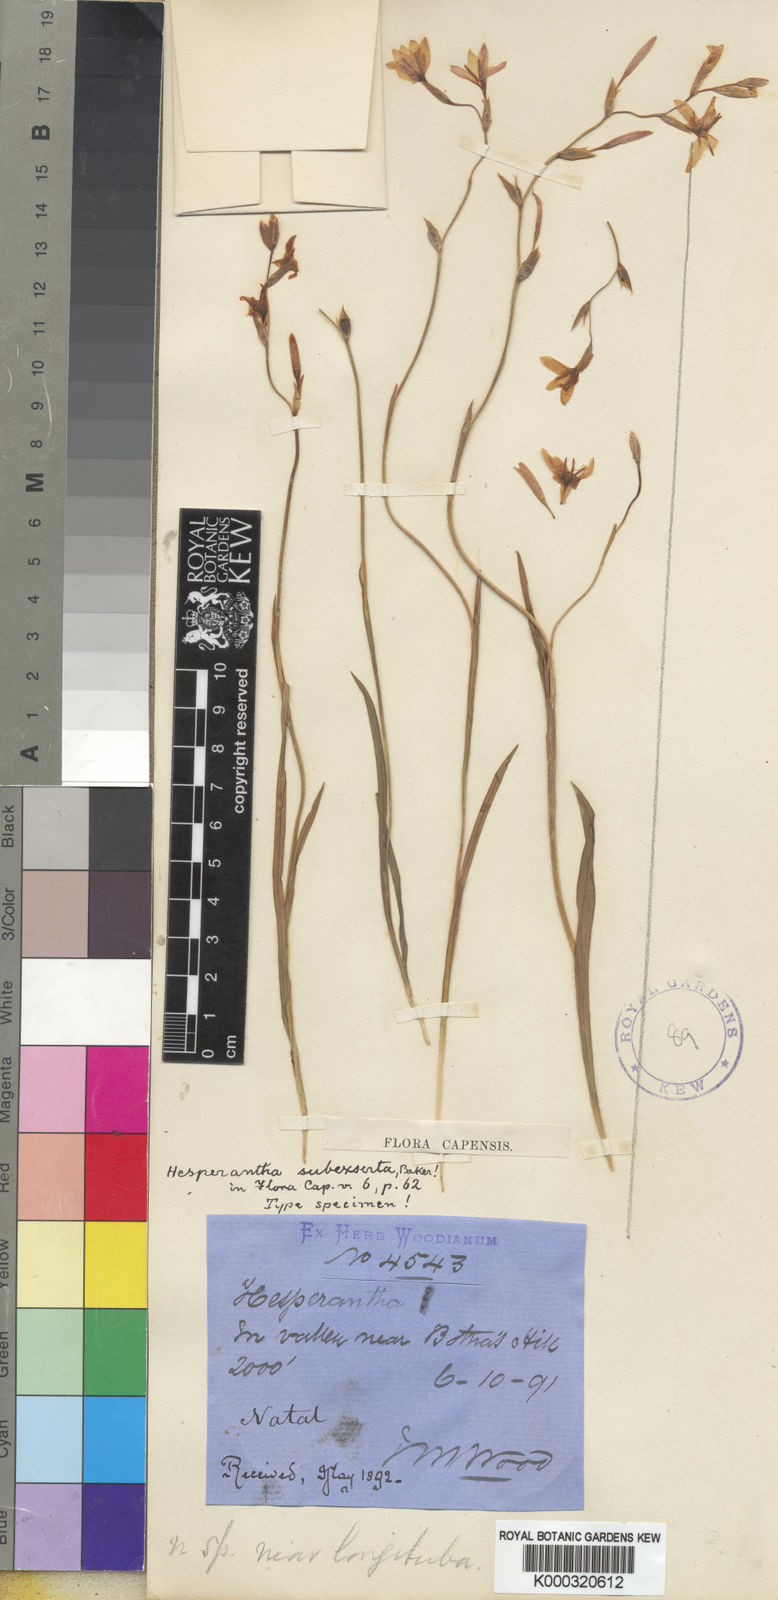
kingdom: Plantae
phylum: Tracheophyta
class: Liliopsida
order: Asparagales
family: Iridaceae
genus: Hesperantha
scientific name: Hesperantha modesta
